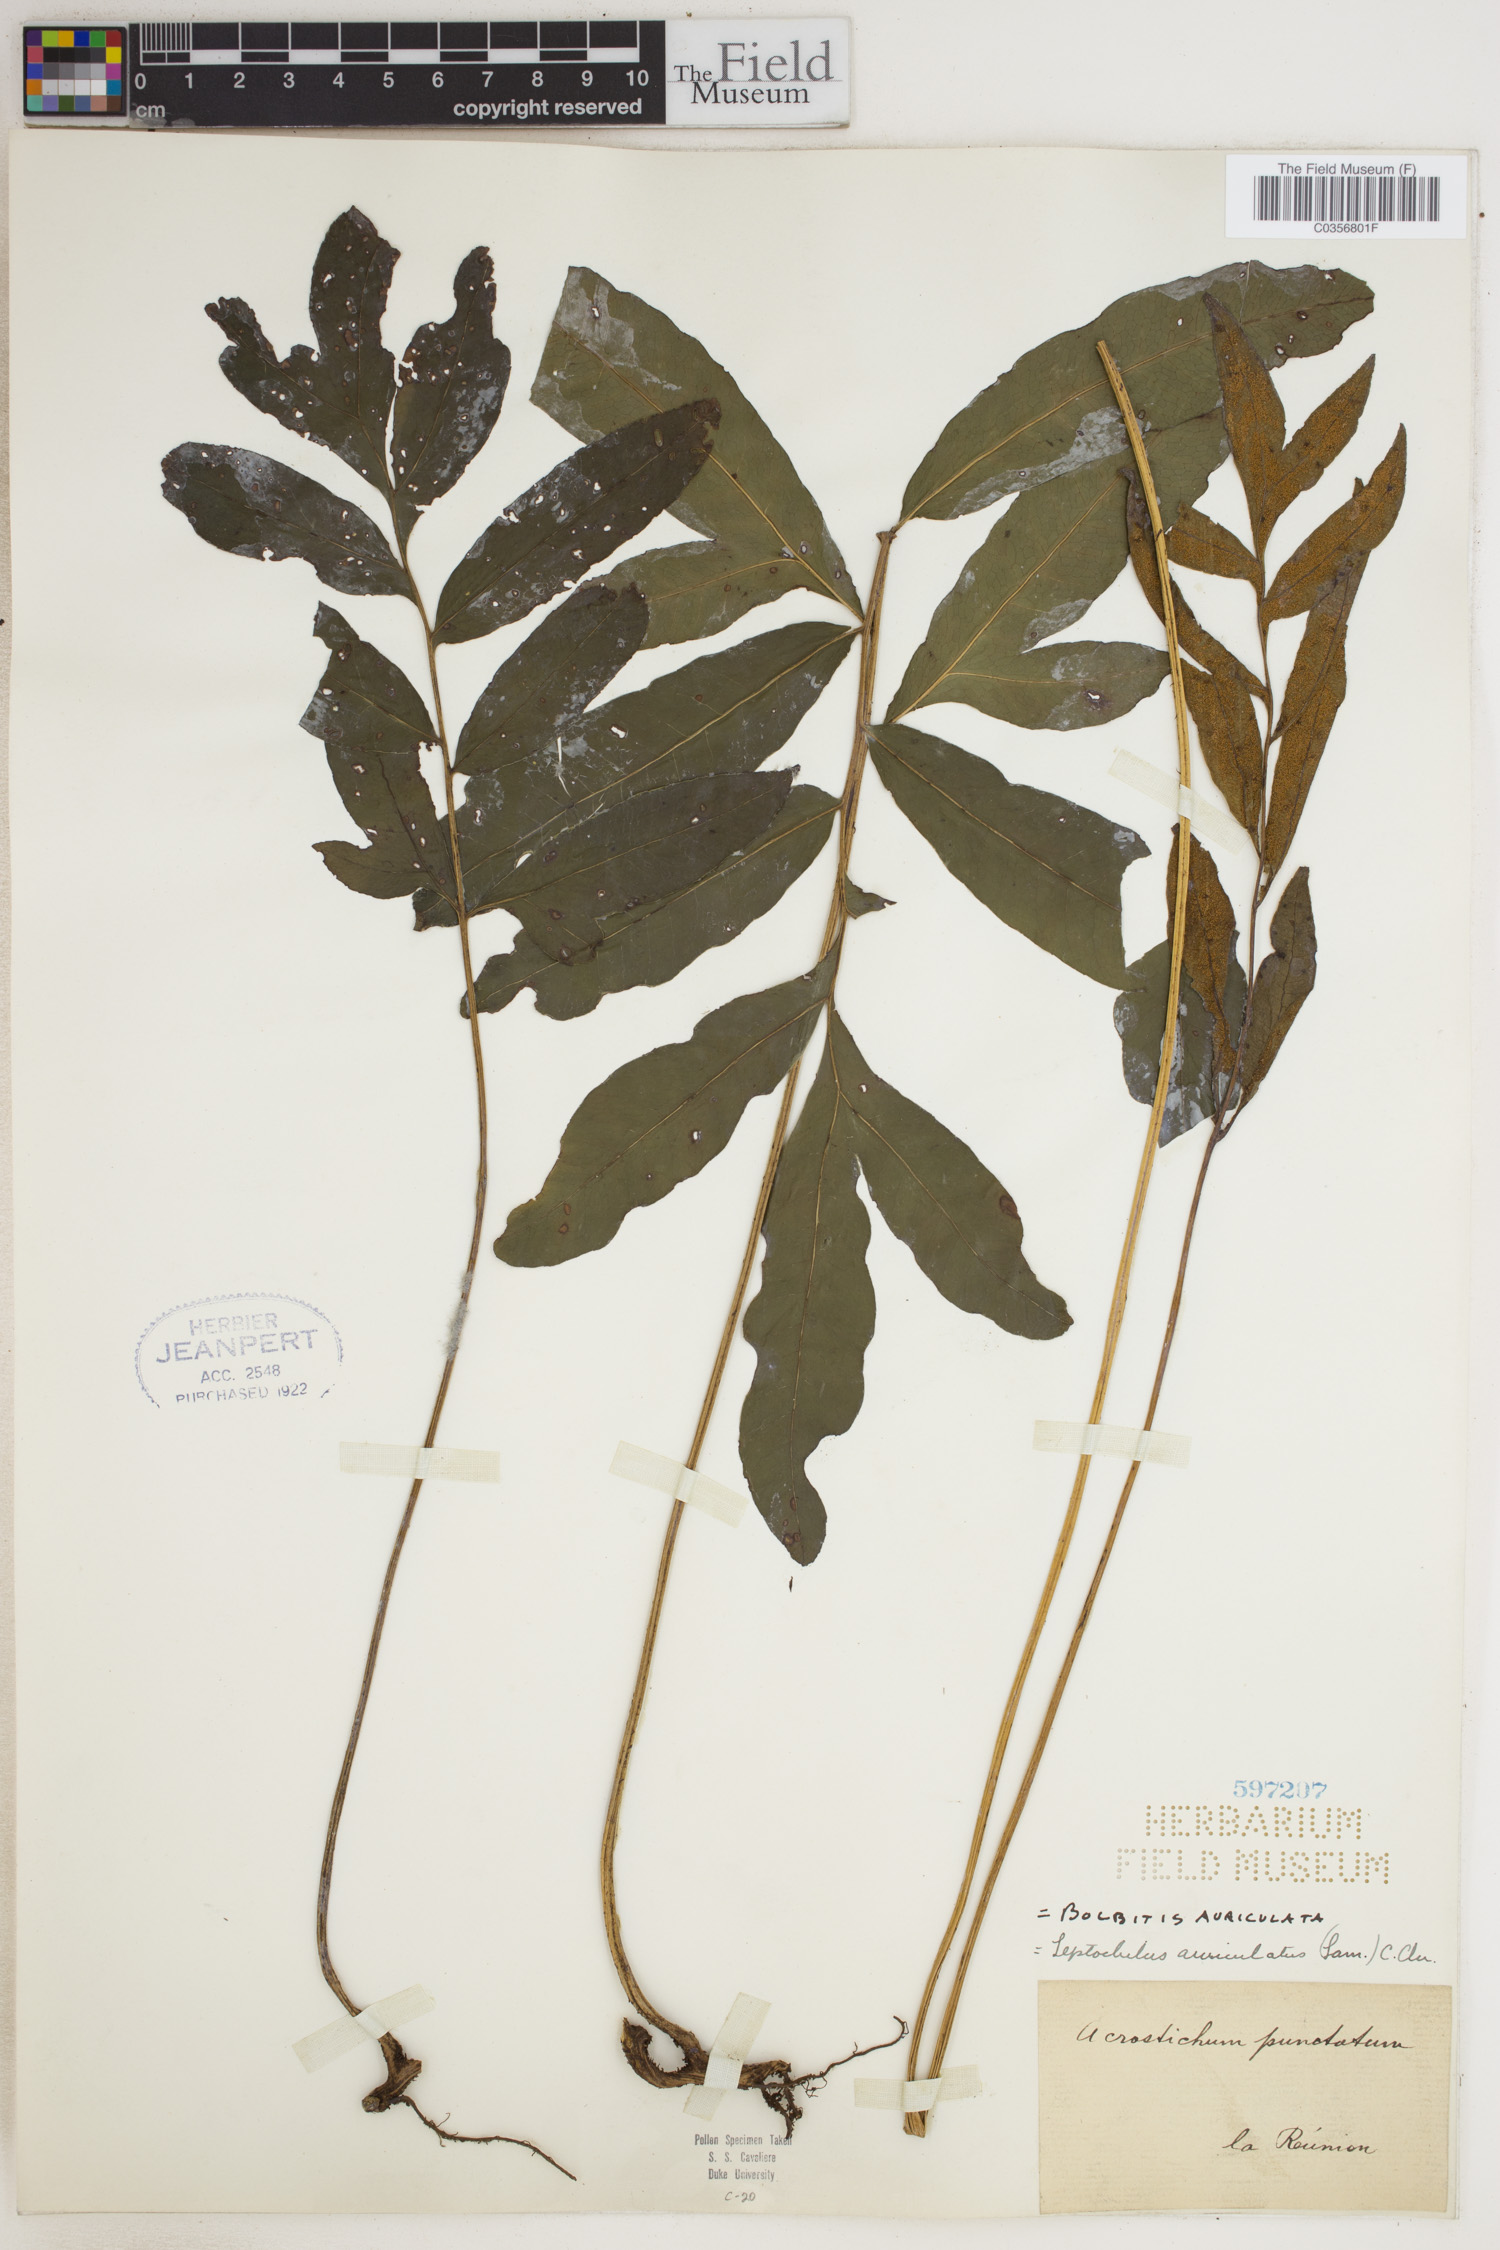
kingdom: Plantae
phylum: Tracheophyta
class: Polypodiopsida
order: Polypodiales
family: Dryopteridaceae
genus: Bolbitis
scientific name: Bolbitis auriculata
